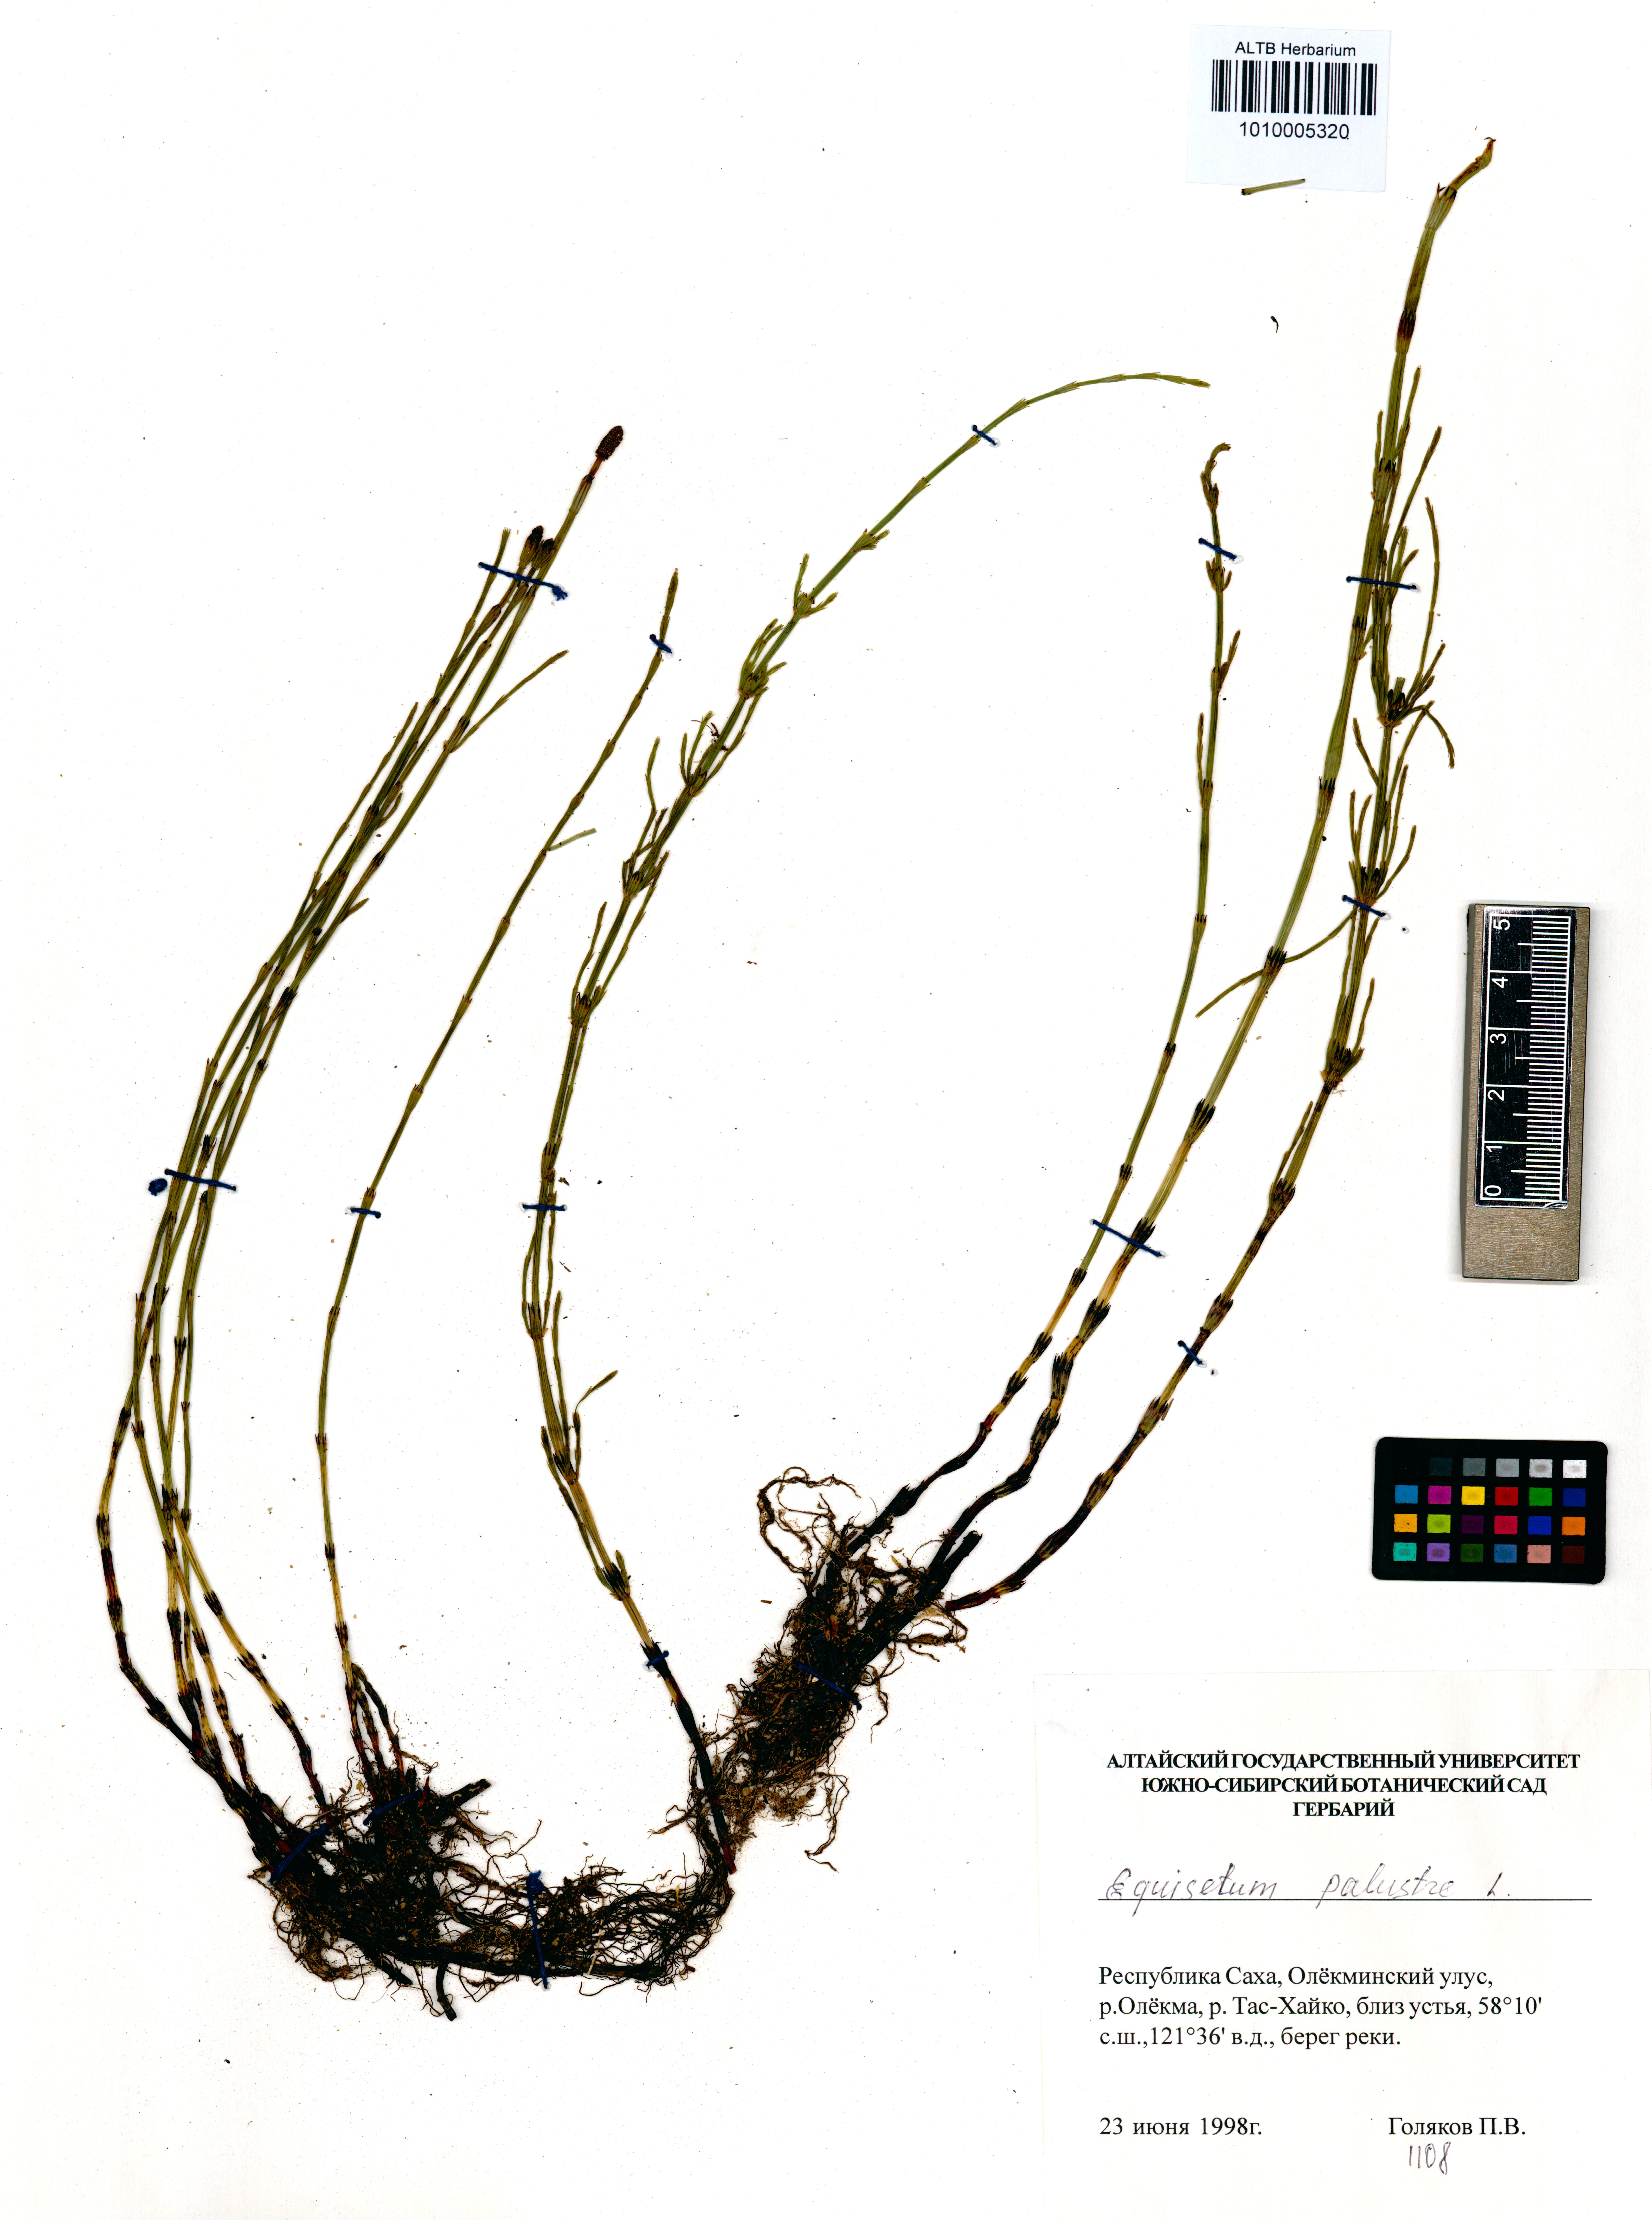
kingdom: Plantae
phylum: Tracheophyta
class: Polypodiopsida
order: Equisetales
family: Equisetaceae
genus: Equisetum
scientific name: Equisetum palustre
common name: Marsh horsetail
